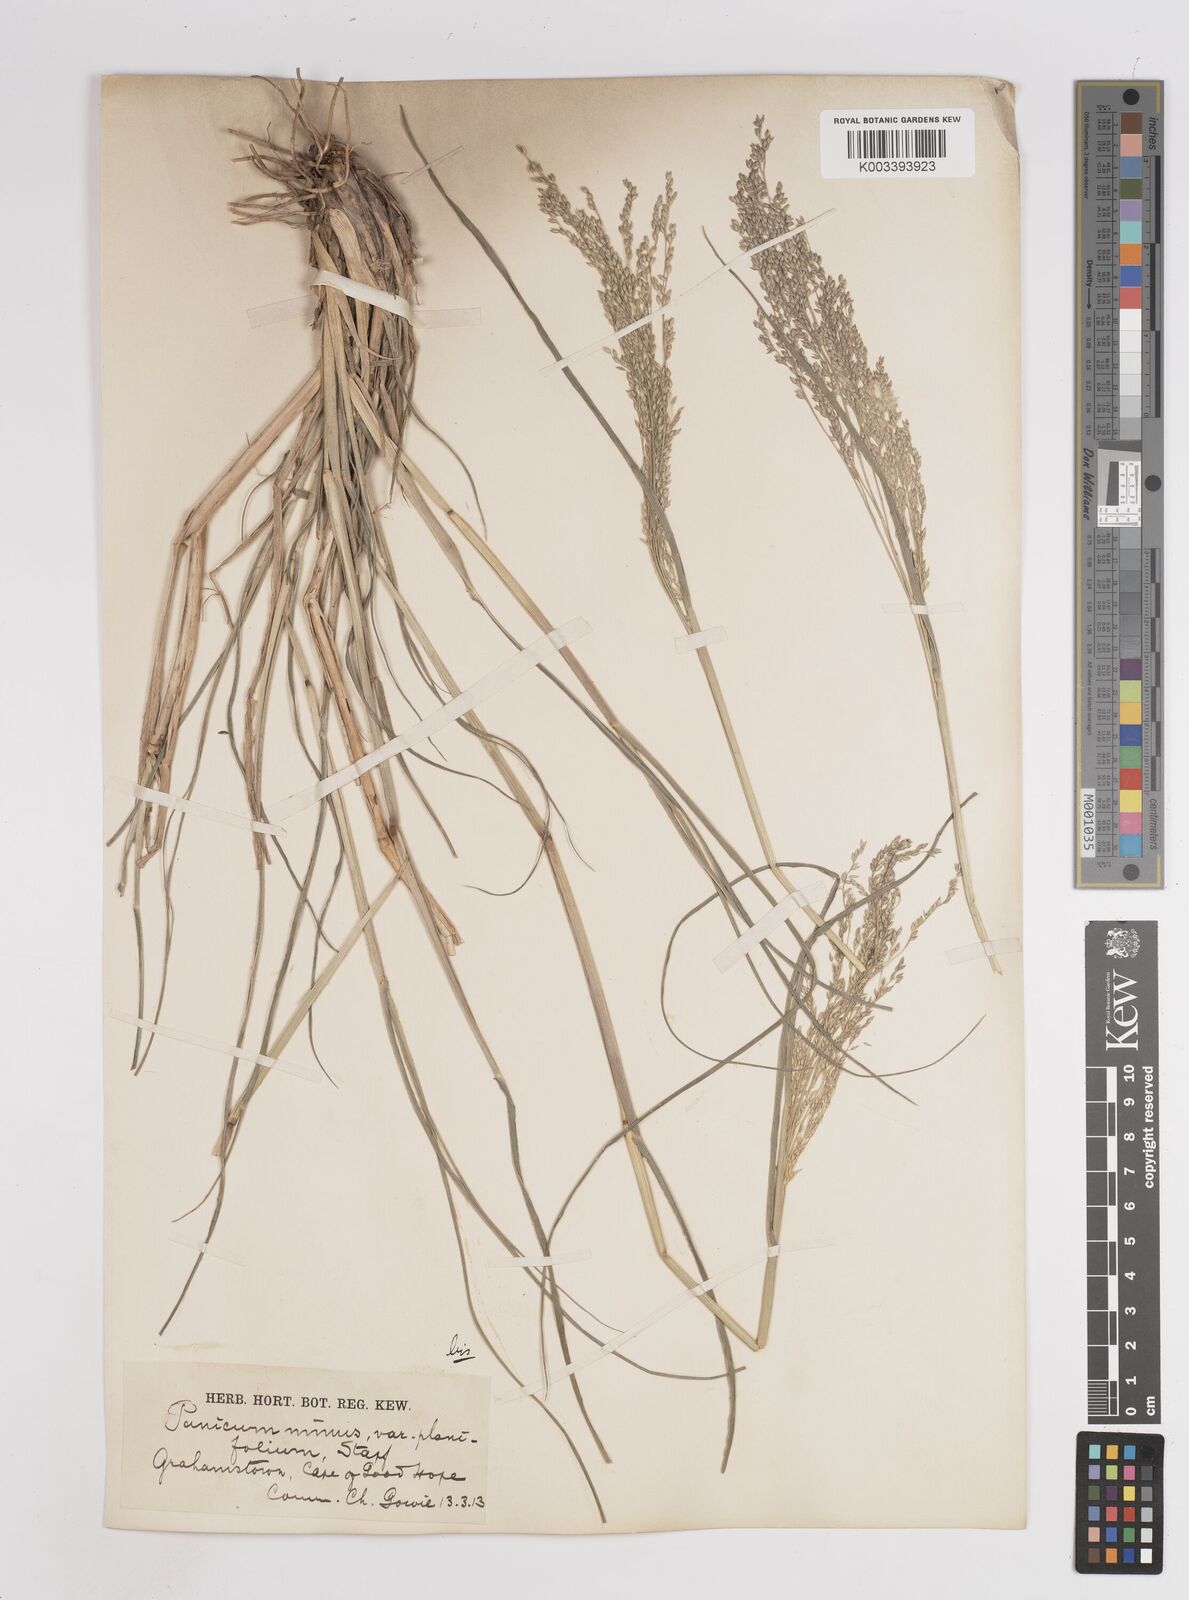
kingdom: Plantae
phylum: Tracheophyta
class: Liliopsida
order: Poales
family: Poaceae
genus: Panicum
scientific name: Panicum
